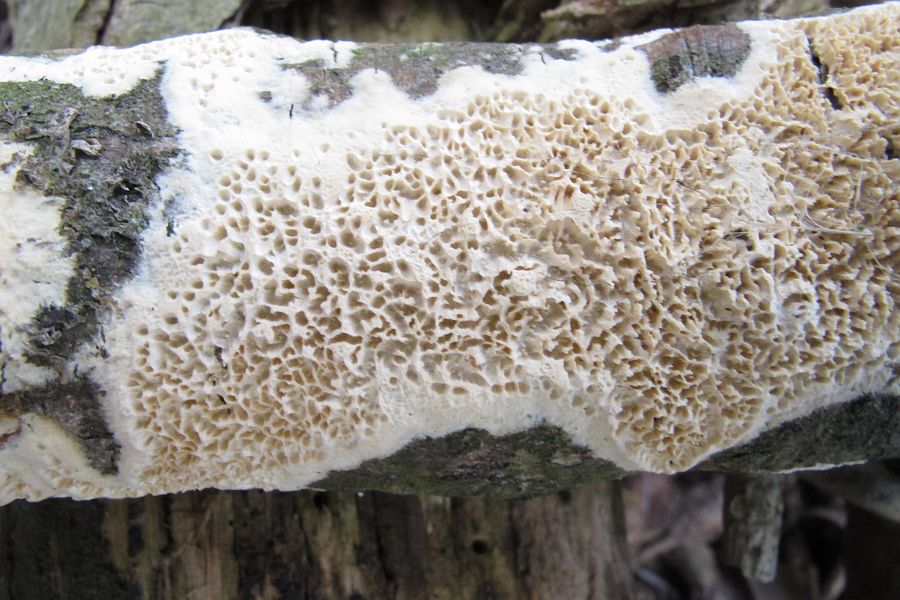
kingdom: Fungi
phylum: Basidiomycota
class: Agaricomycetes
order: Hymenochaetales
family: Schizoporaceae
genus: Xylodon
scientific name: Xylodon
